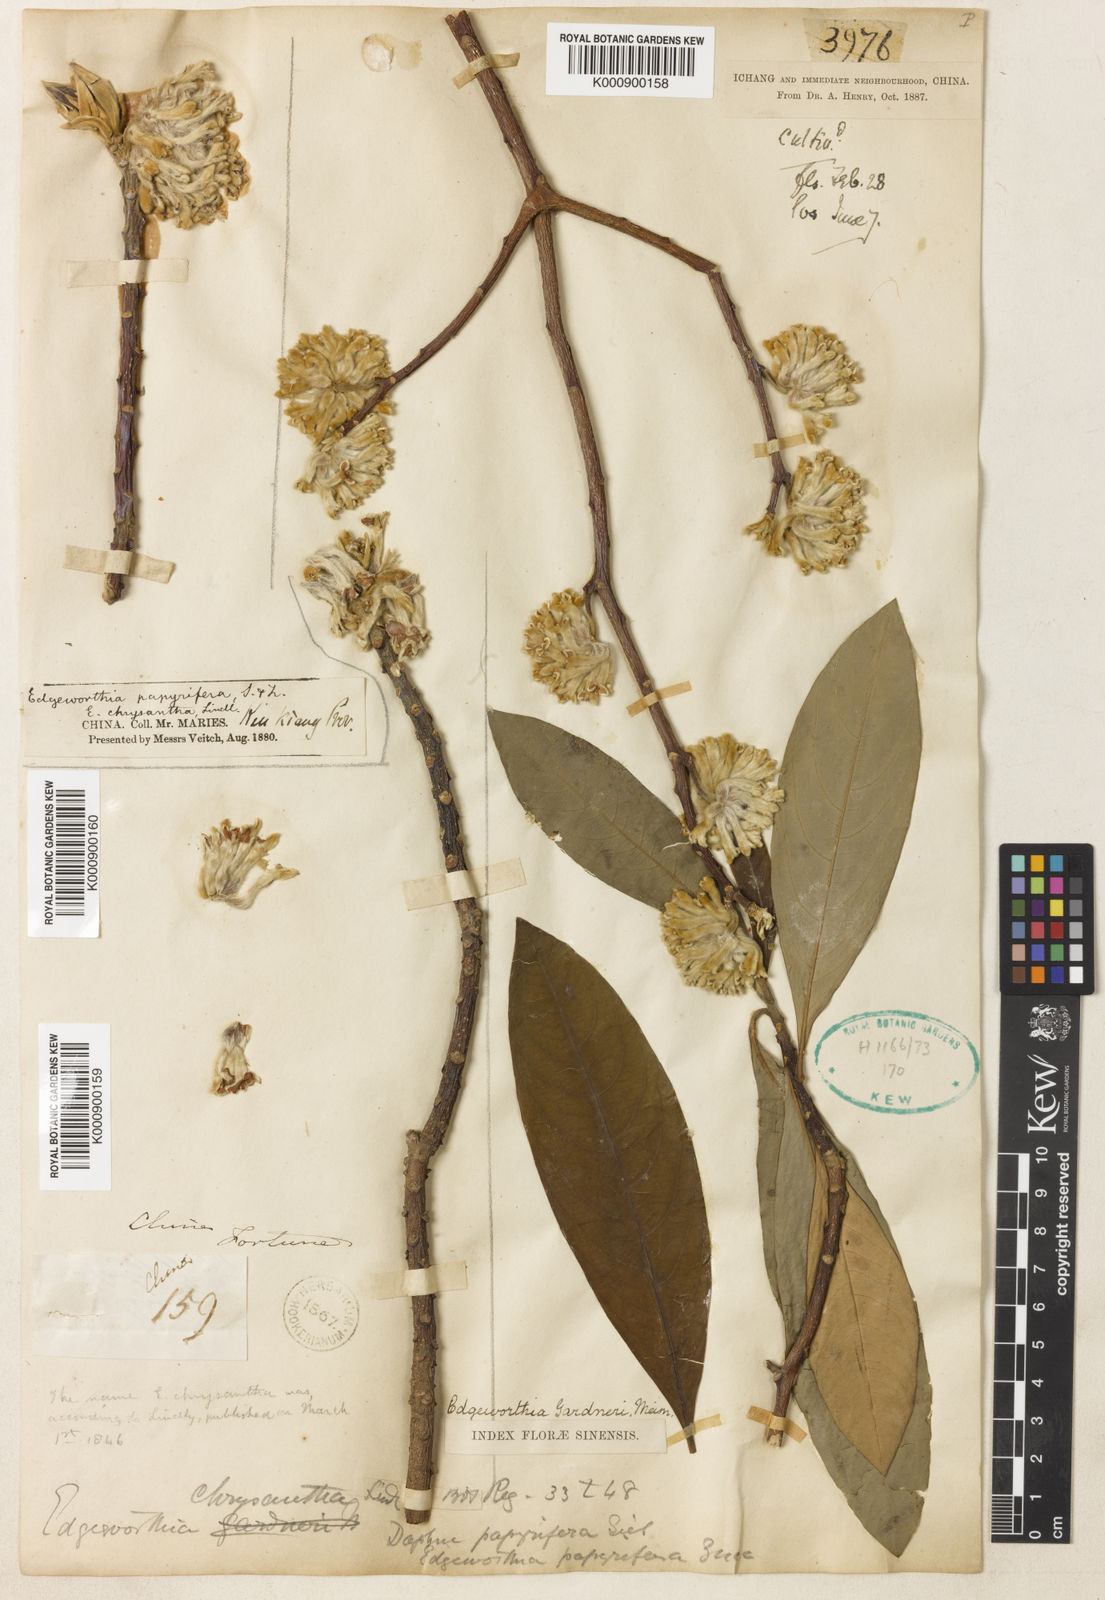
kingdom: Plantae
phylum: Tracheophyta
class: Magnoliopsida
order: Malvales
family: Thymelaeaceae
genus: Edgeworthia
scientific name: Edgeworthia chrysantha
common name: Oriental paperbush
